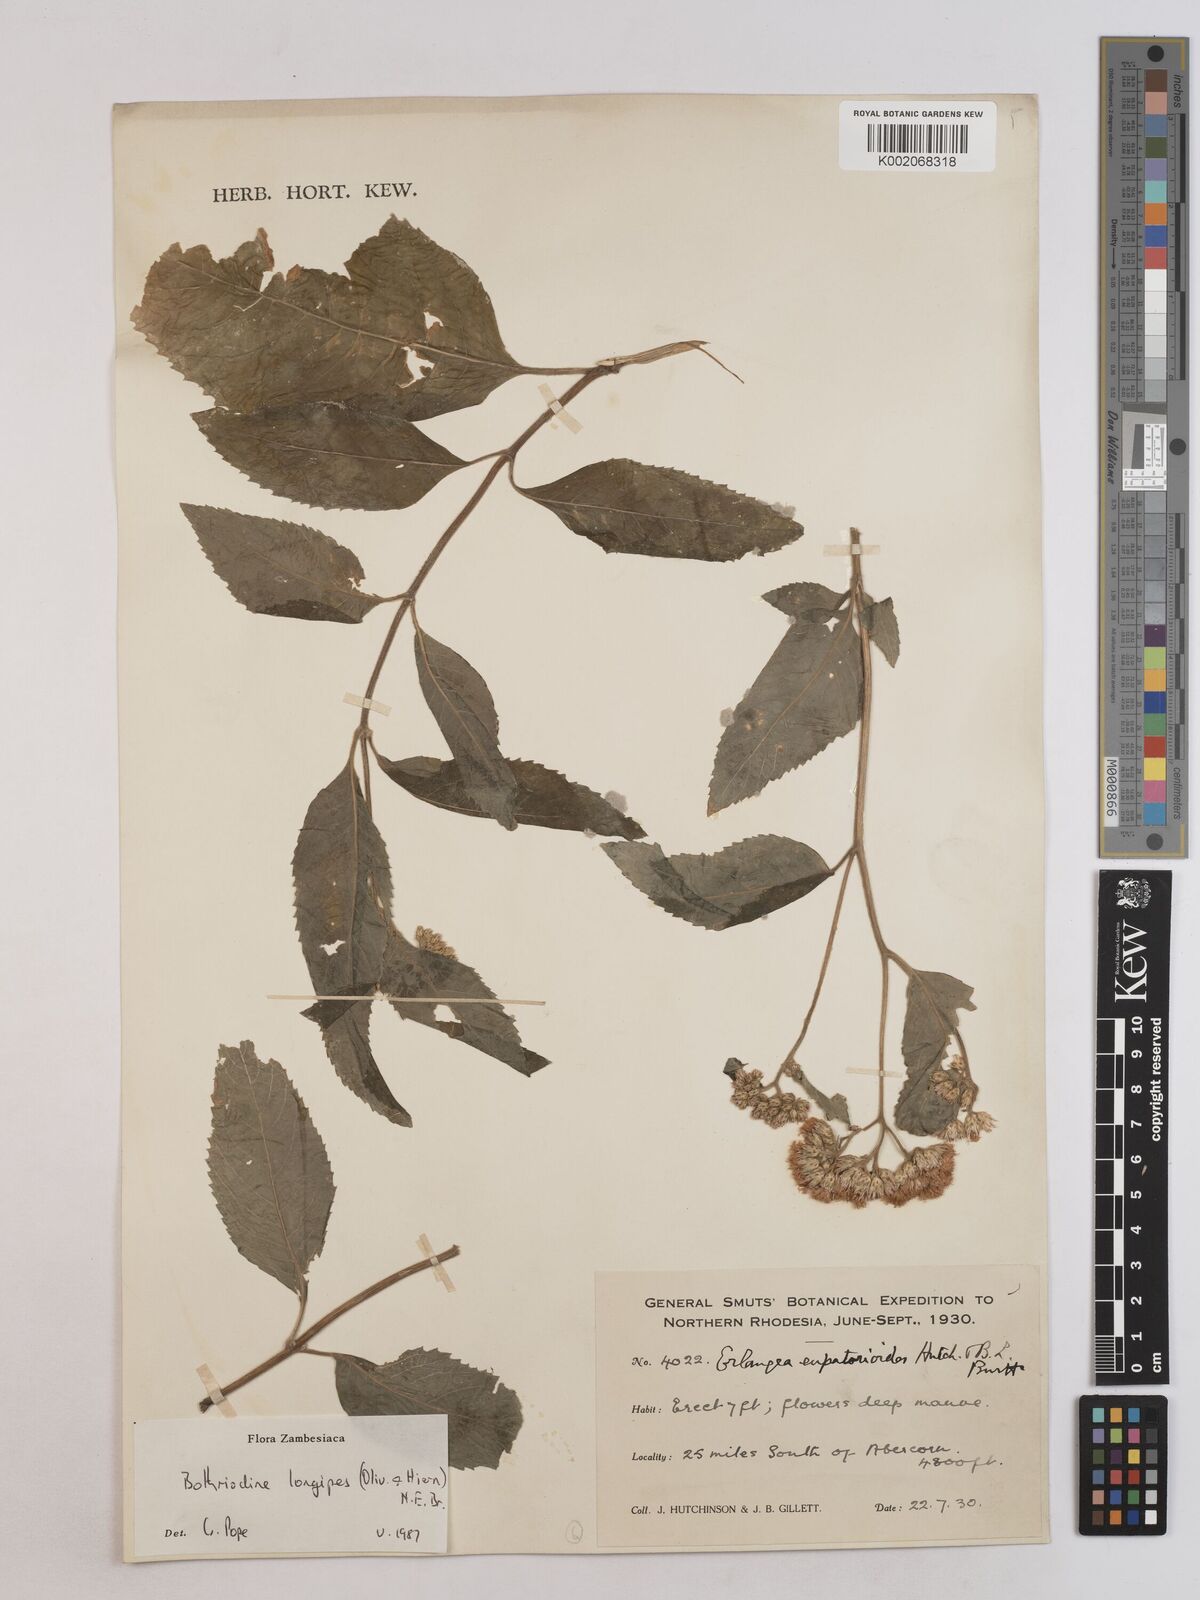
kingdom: Plantae
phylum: Tracheophyta
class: Magnoliopsida
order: Asterales
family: Asteraceae
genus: Bothriocline
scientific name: Bothriocline longipes
